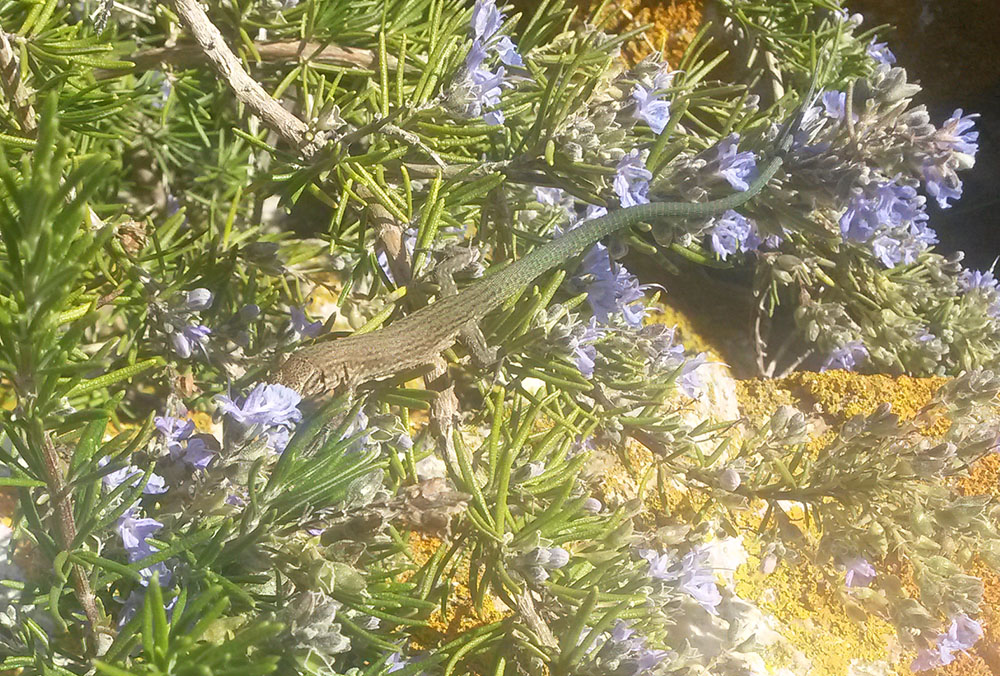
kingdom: Animalia
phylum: Chordata
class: Squamata
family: Lacertidae
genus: Podarcis
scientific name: Podarcis lilfordi
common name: Belearic lizard
